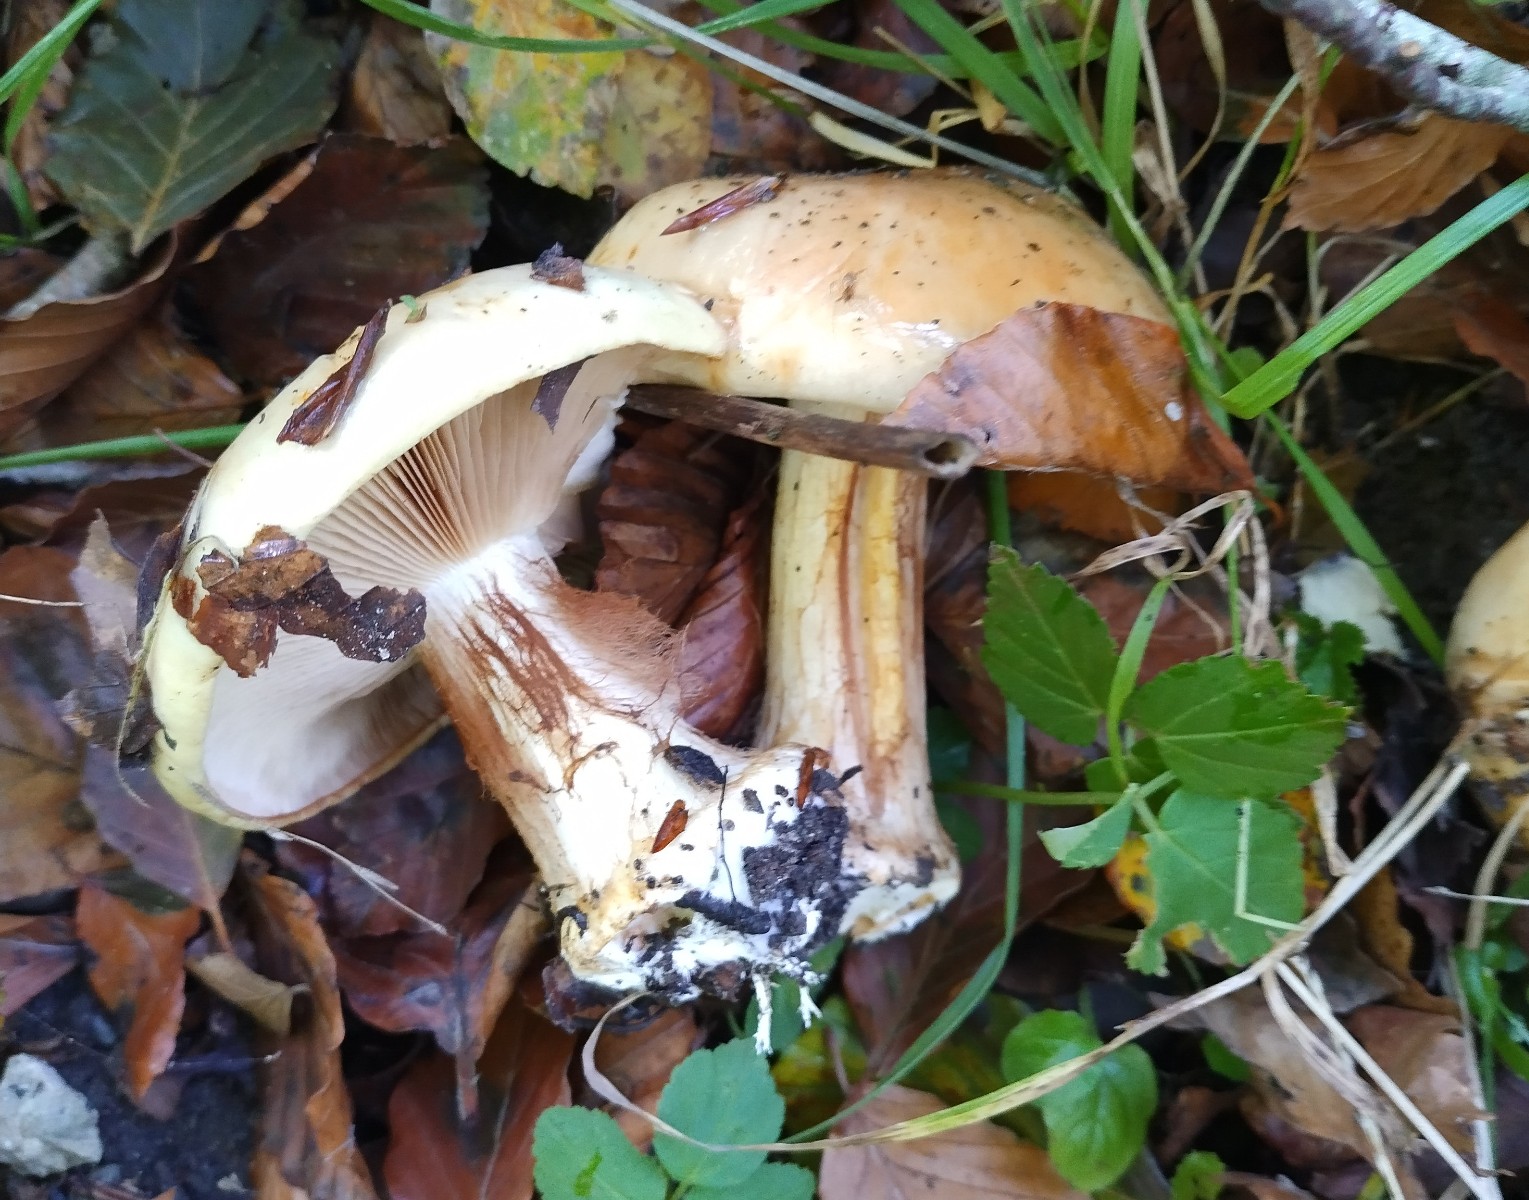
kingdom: Fungi
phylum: Basidiomycota
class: Agaricomycetes
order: Agaricales
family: Cortinariaceae
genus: Calonarius
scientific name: Calonarius humolens
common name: radise-slørhat
